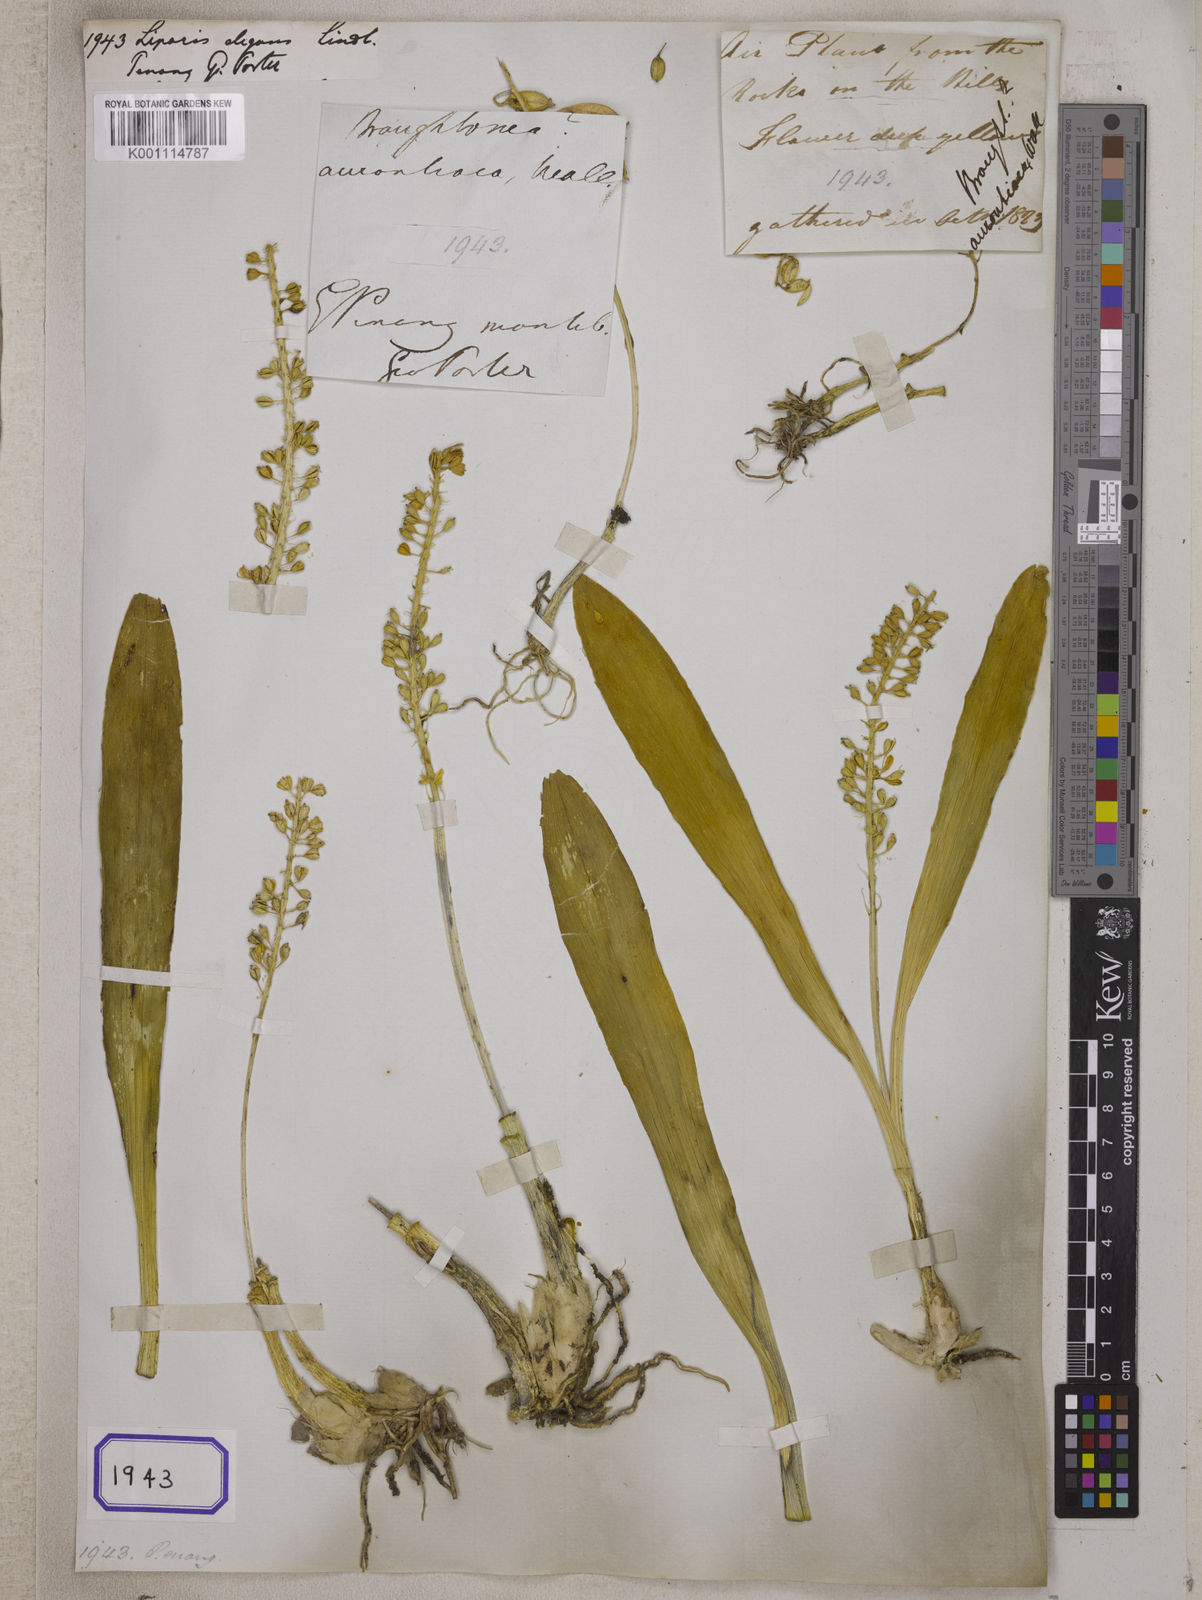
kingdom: Plantae
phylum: Tracheophyta
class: Liliopsida
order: Asparagales
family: Orchidaceae
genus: Liparis
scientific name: Liparis elegans
